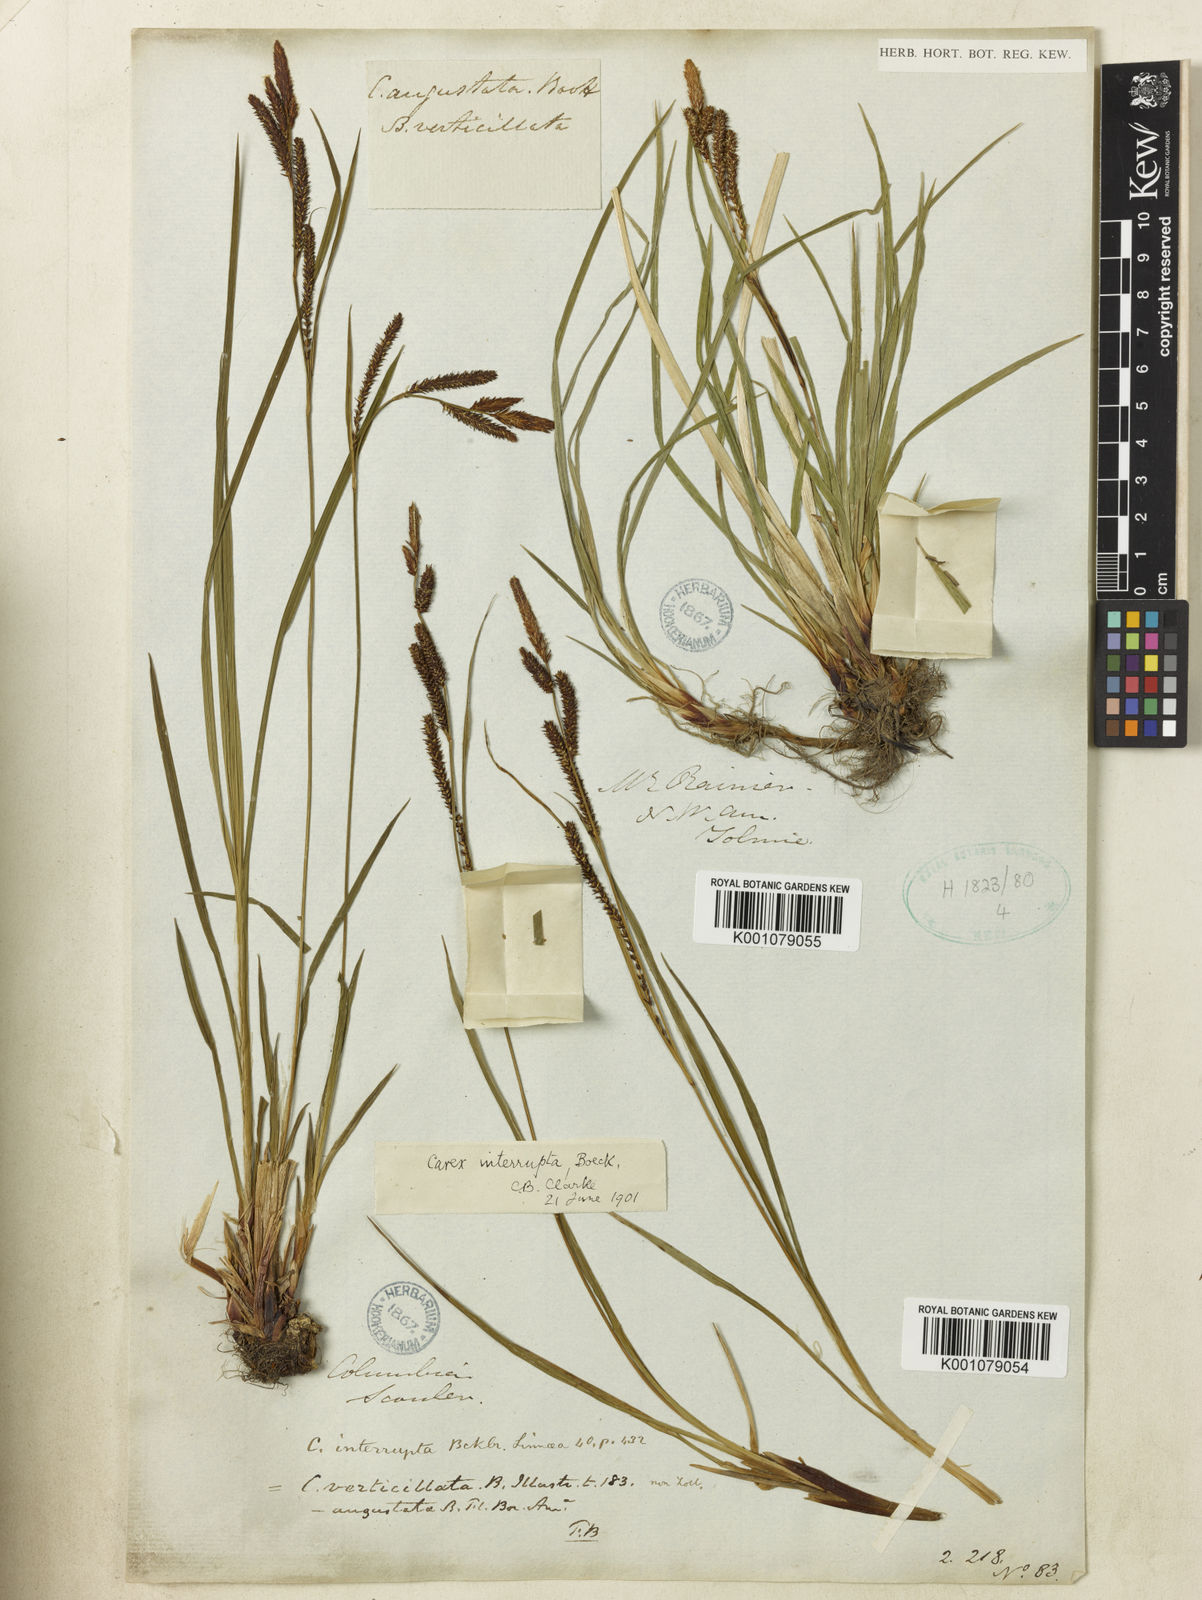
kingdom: Plantae
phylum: Tracheophyta
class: Liliopsida
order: Poales
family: Cyperaceae
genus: Carex
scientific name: Carex interrupta
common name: Green-fruited sedge
